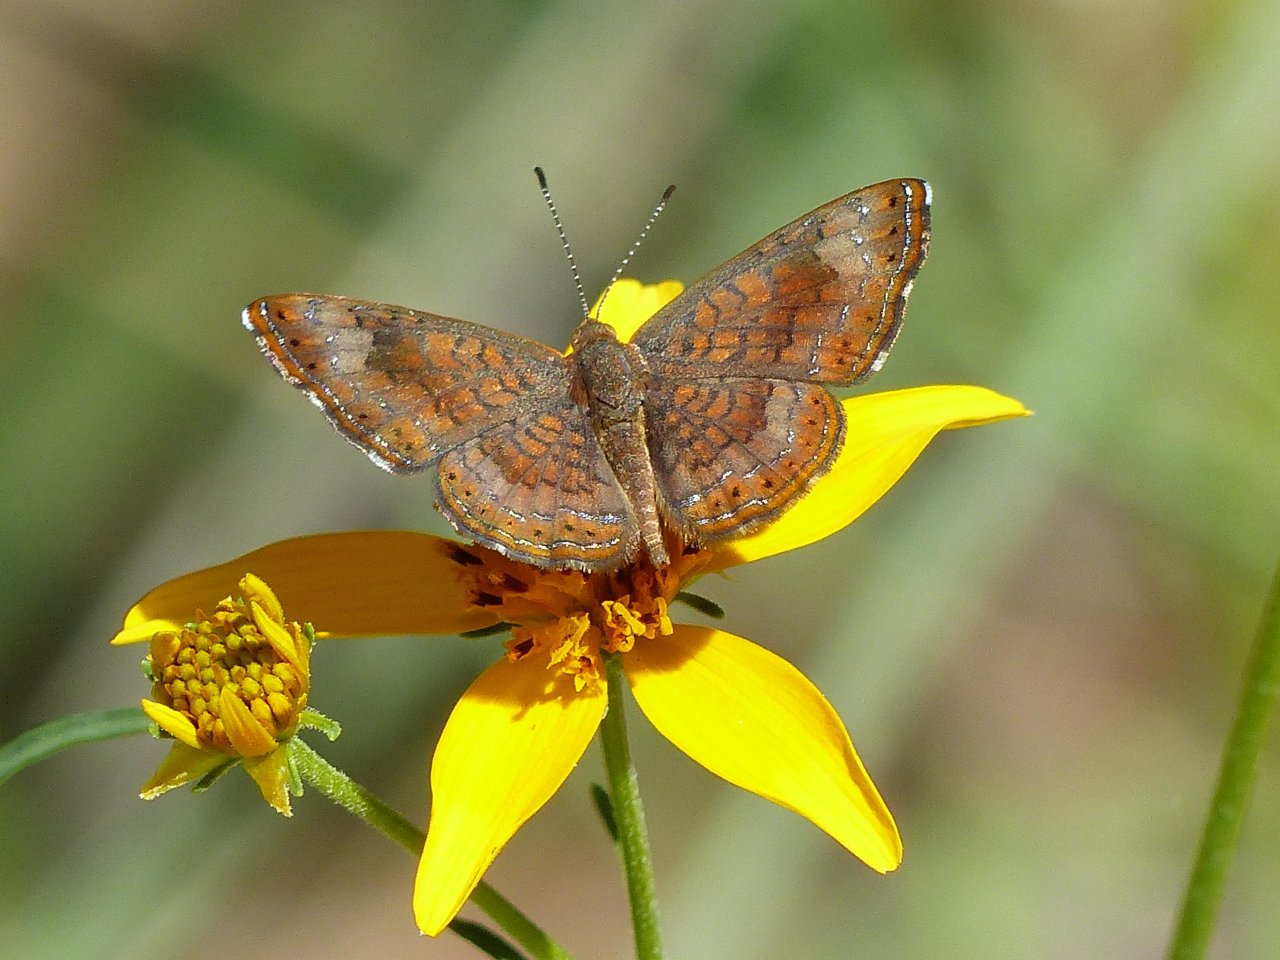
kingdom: Animalia
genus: Calephelis
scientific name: Calephelis nemesis
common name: Fatal Metalmark
